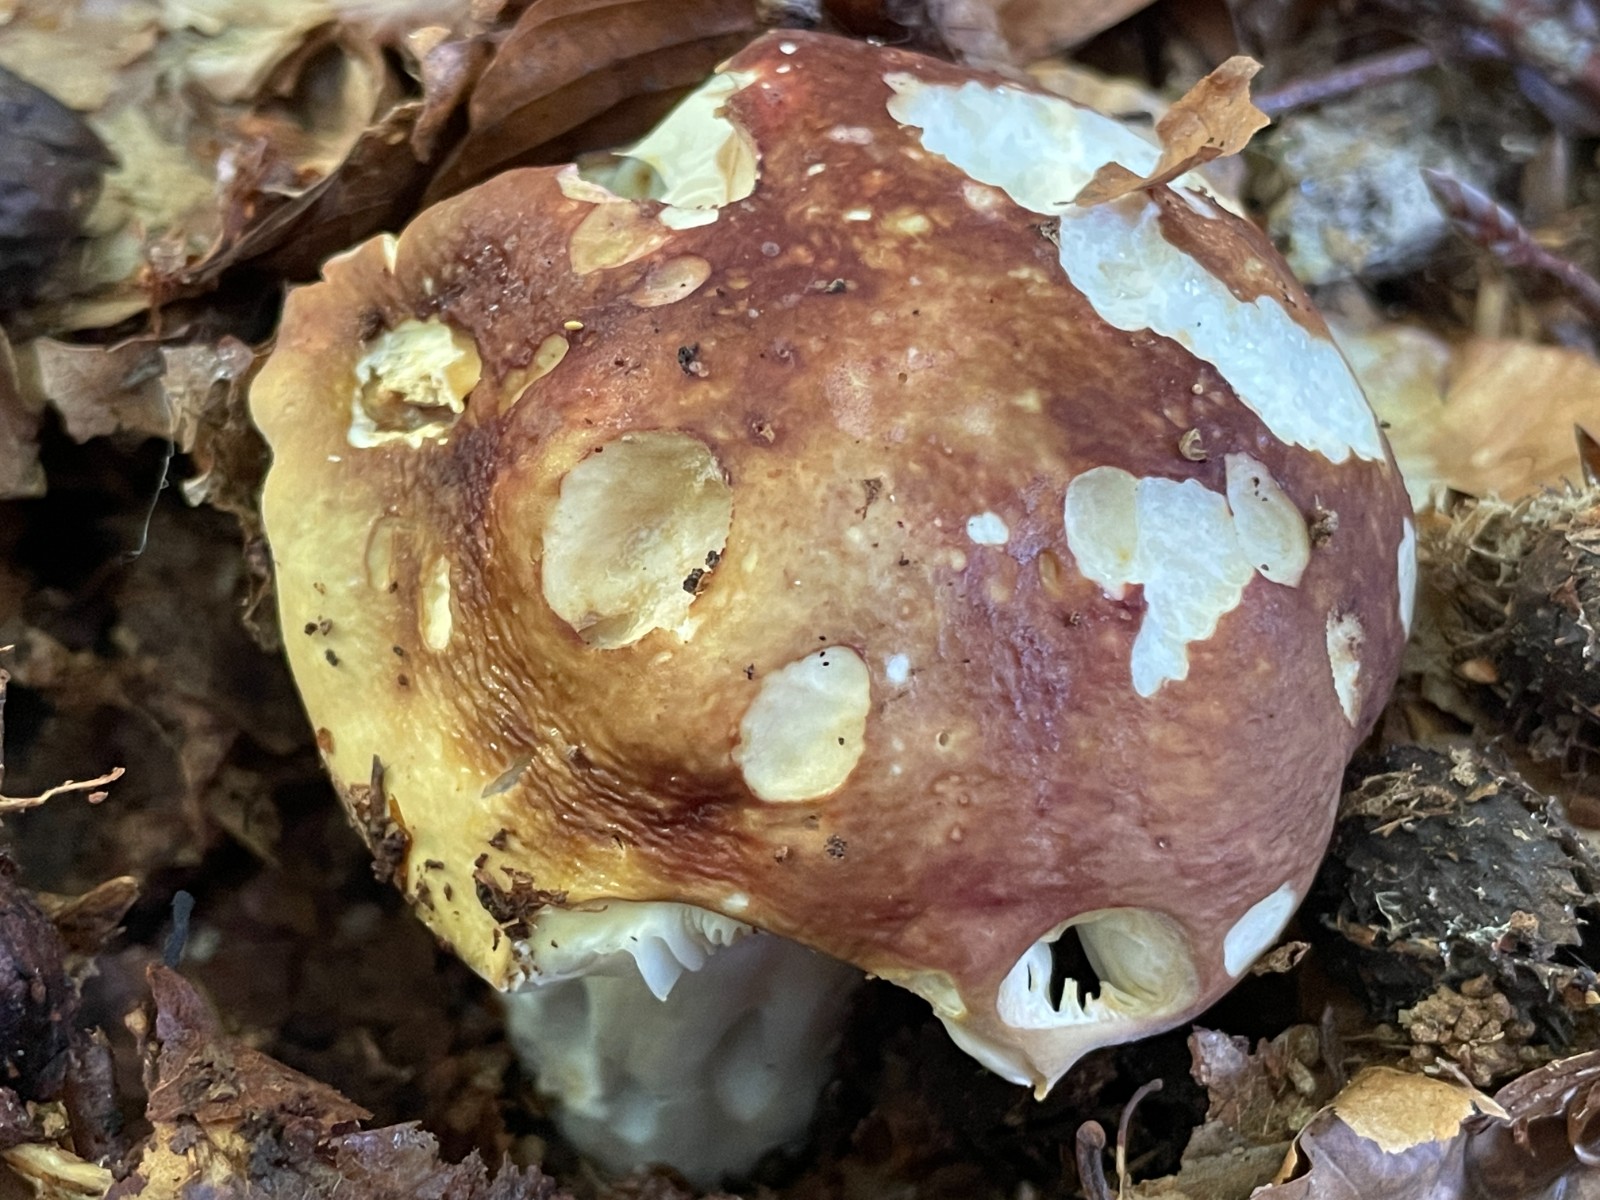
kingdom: Fungi
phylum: Basidiomycota
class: Agaricomycetes
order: Russulales
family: Russulaceae
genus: Russula
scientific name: Russula olivacea
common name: stor skørhat
